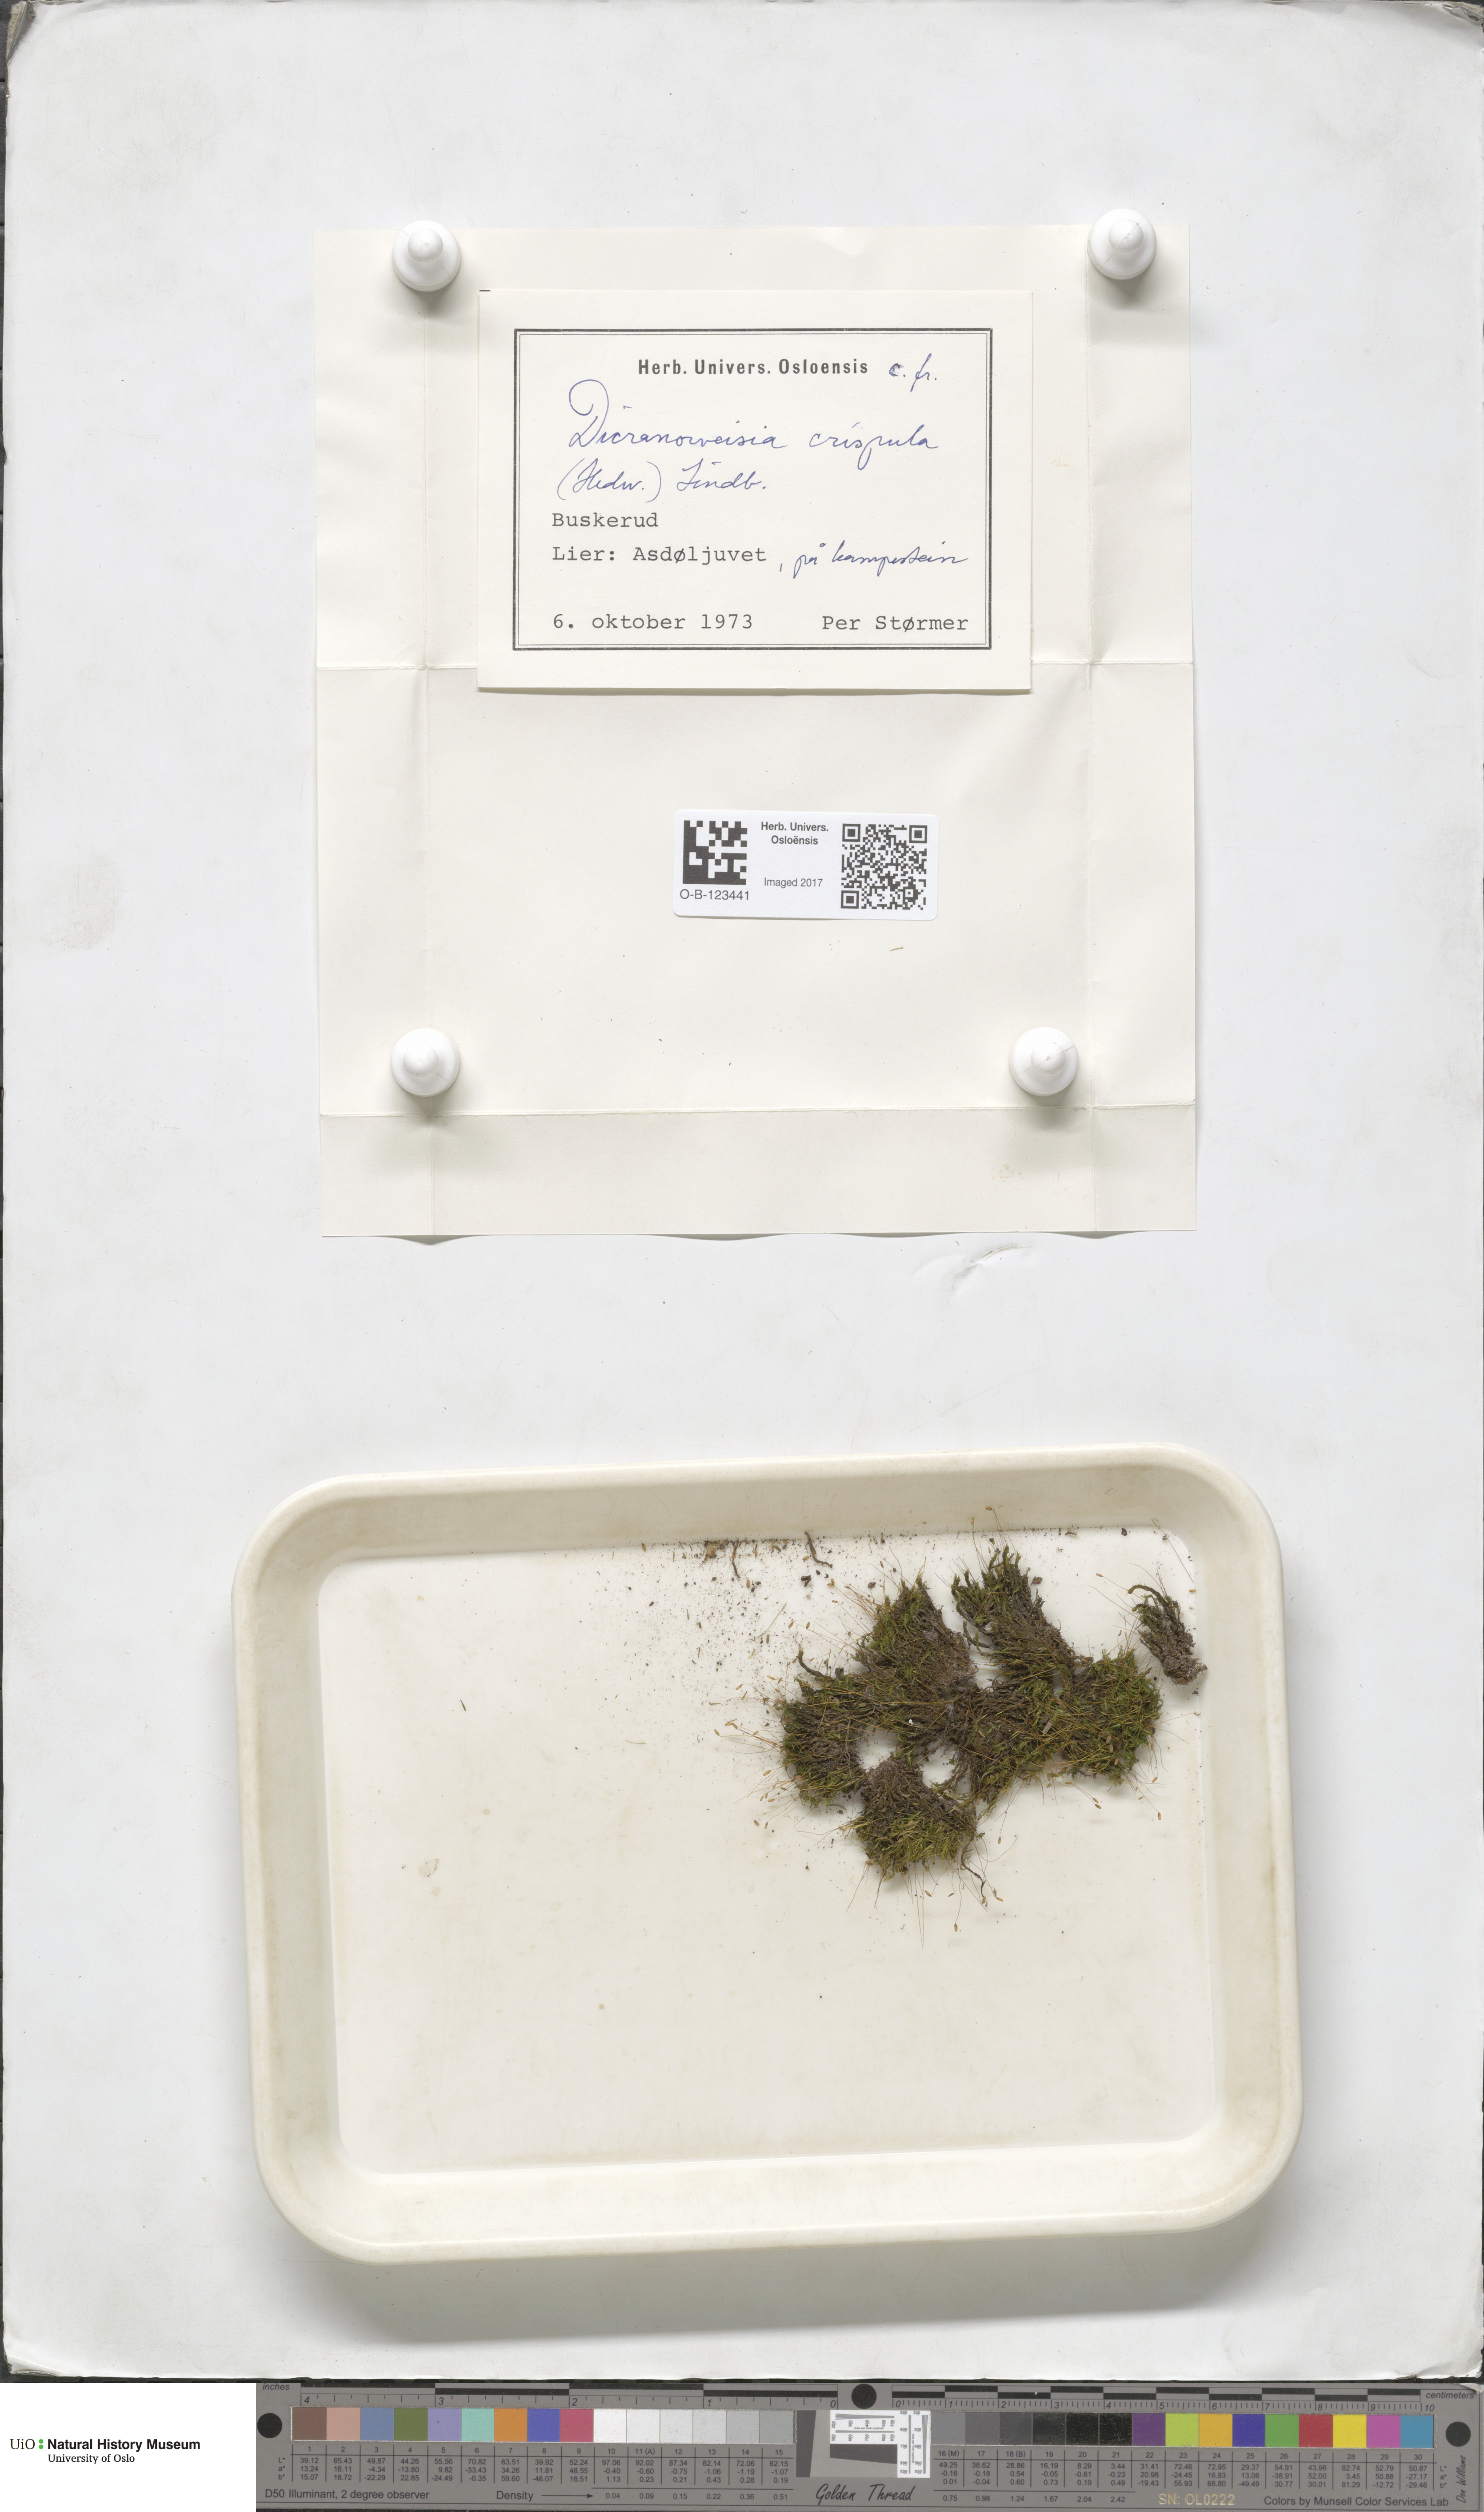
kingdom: Plantae
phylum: Bryophyta
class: Bryopsida
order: Scouleriales
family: Hymenolomataceae
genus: Hymenoloma
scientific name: Hymenoloma crispulum
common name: Mountain pincushion
